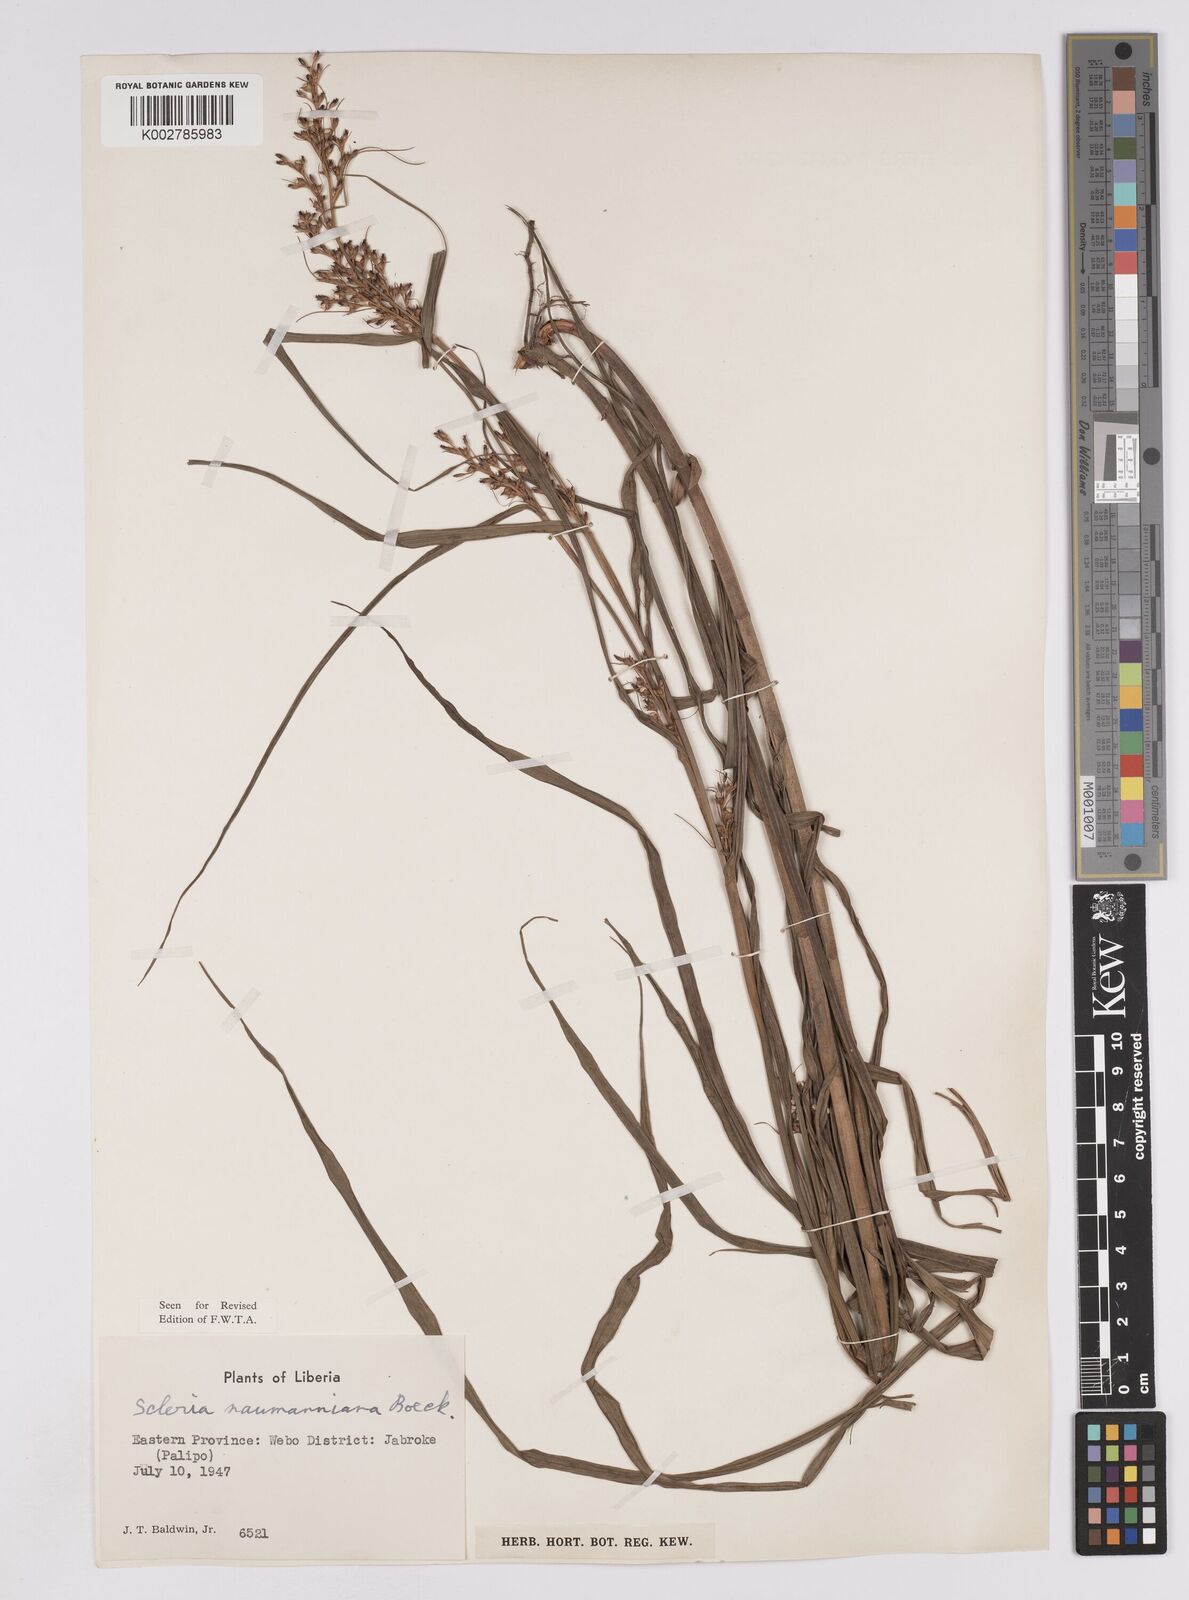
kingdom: Plantae
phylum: Tracheophyta
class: Liliopsida
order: Poales
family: Cyperaceae
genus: Scleria
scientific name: Scleria naumanniana
